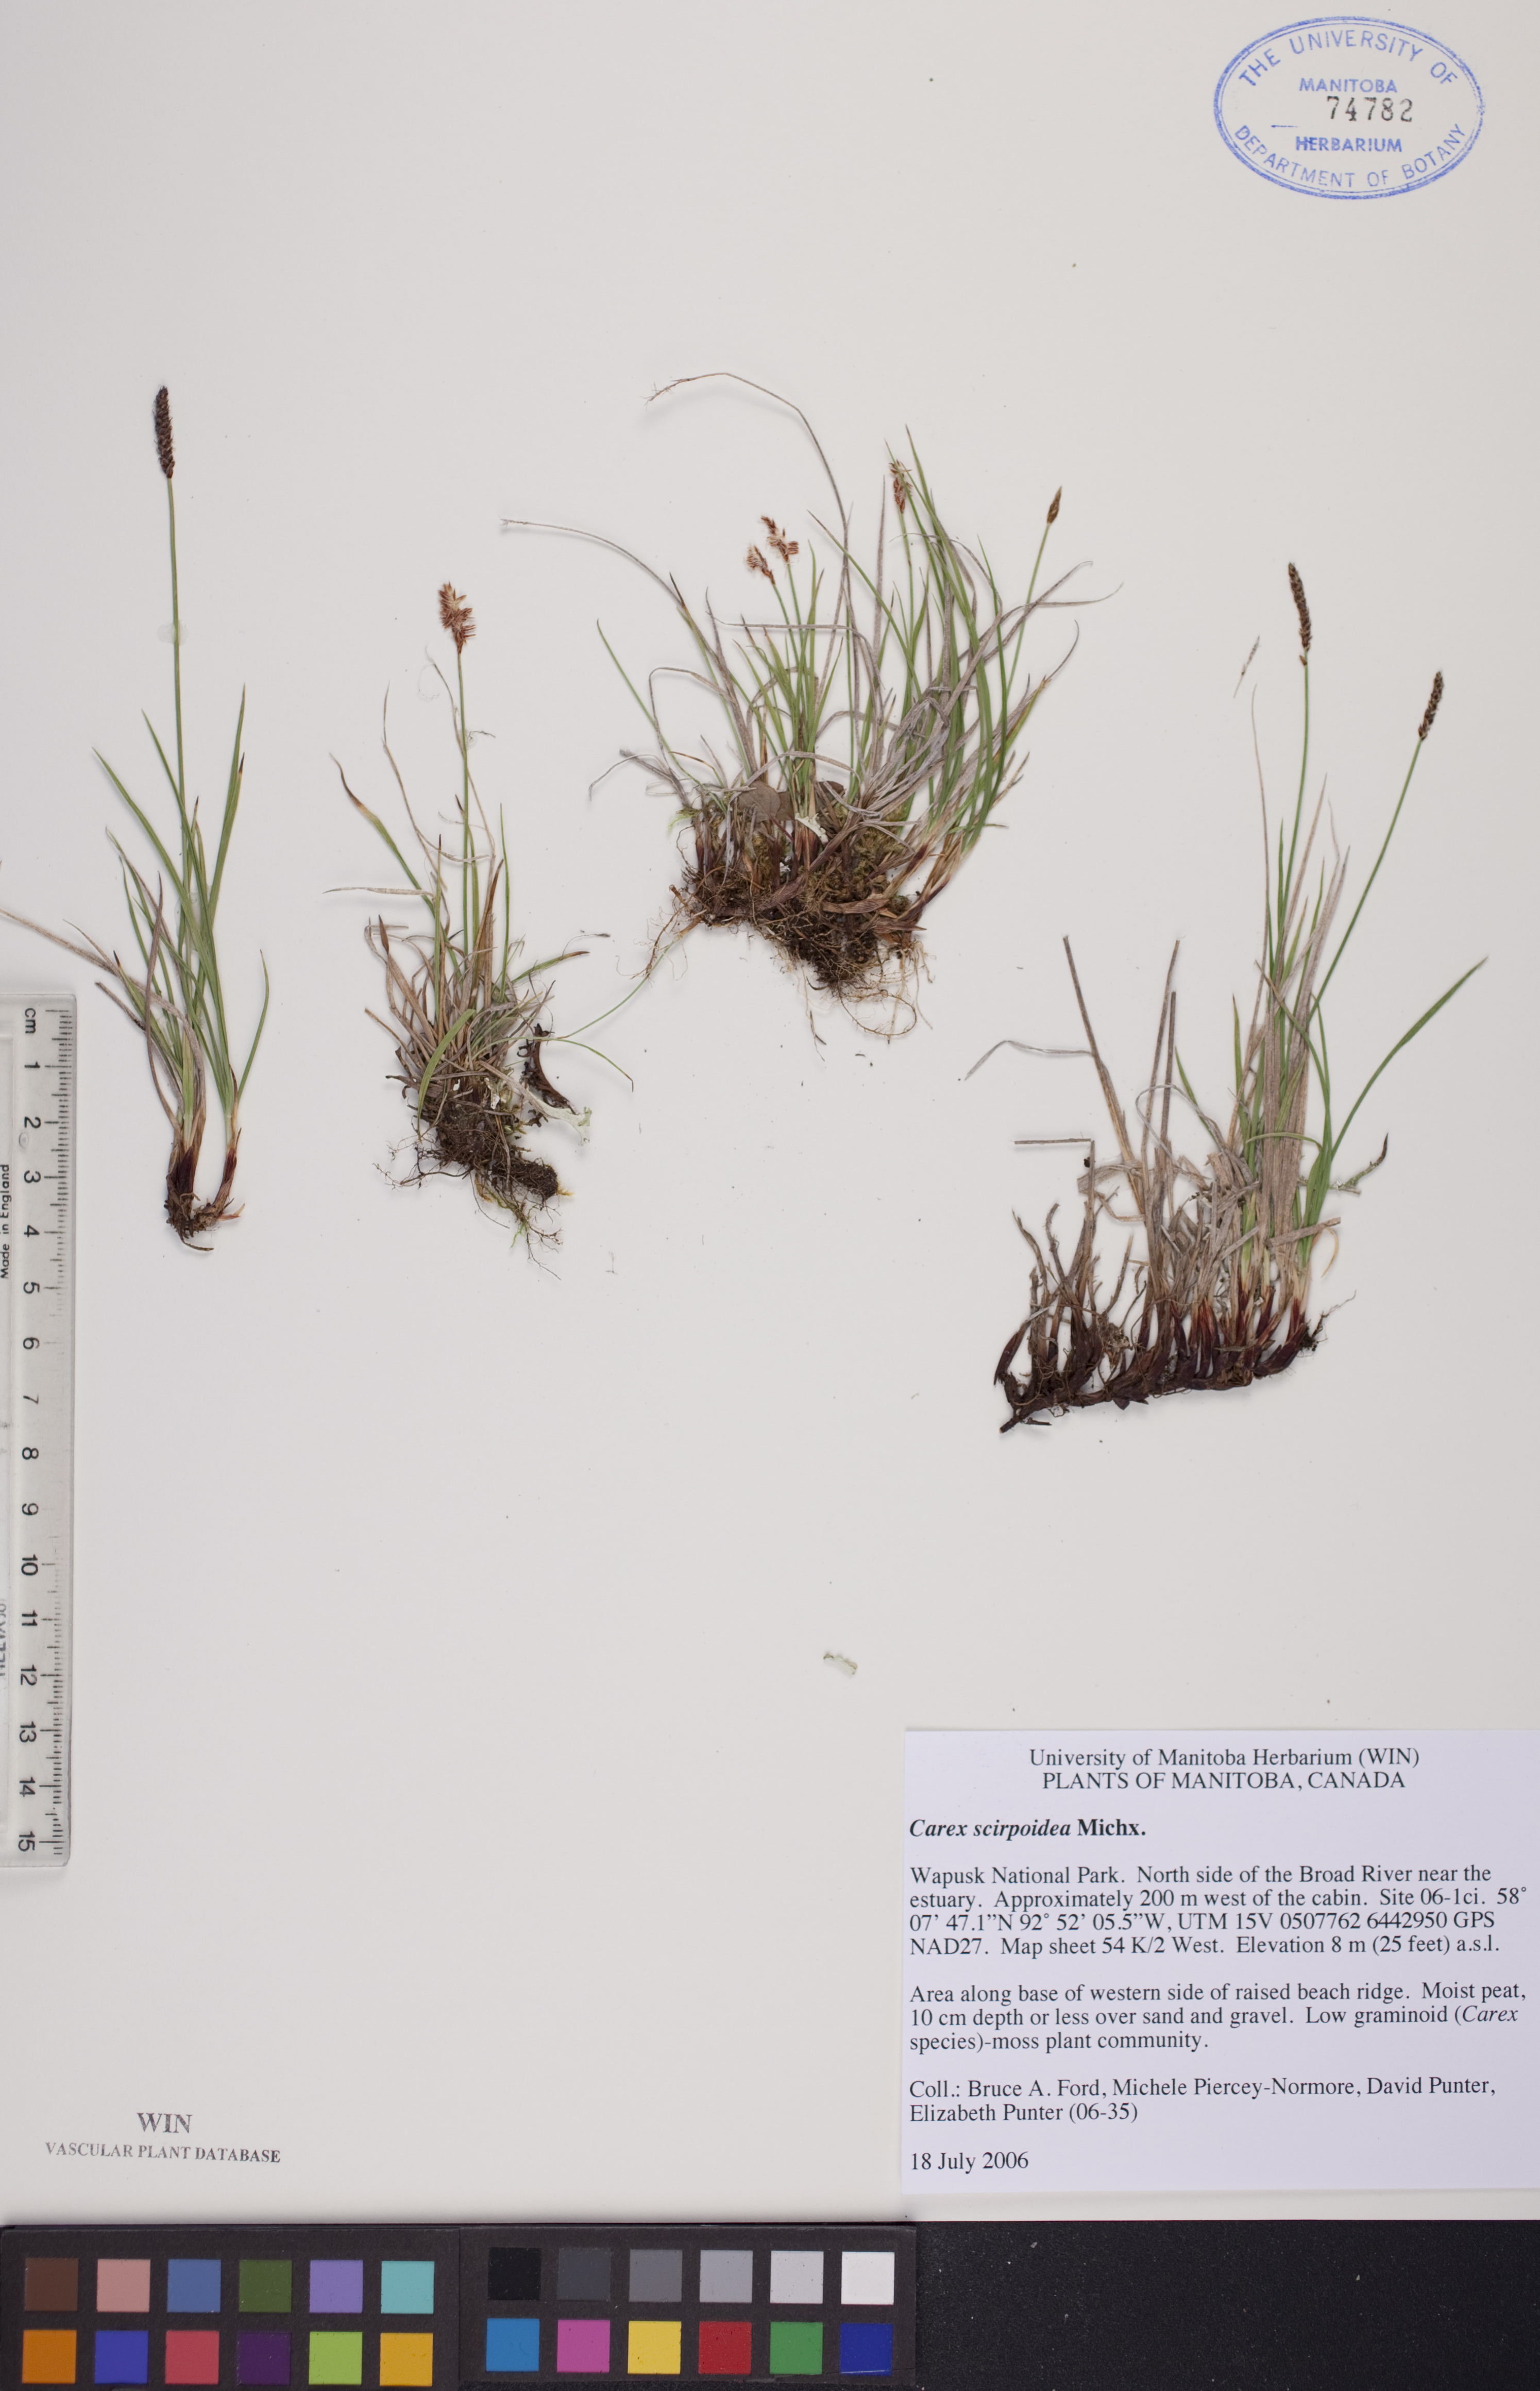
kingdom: Plantae
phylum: Tracheophyta
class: Liliopsida
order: Poales
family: Cyperaceae
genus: Carex
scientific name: Carex scirpoidea
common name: Canada single-spike sedge
